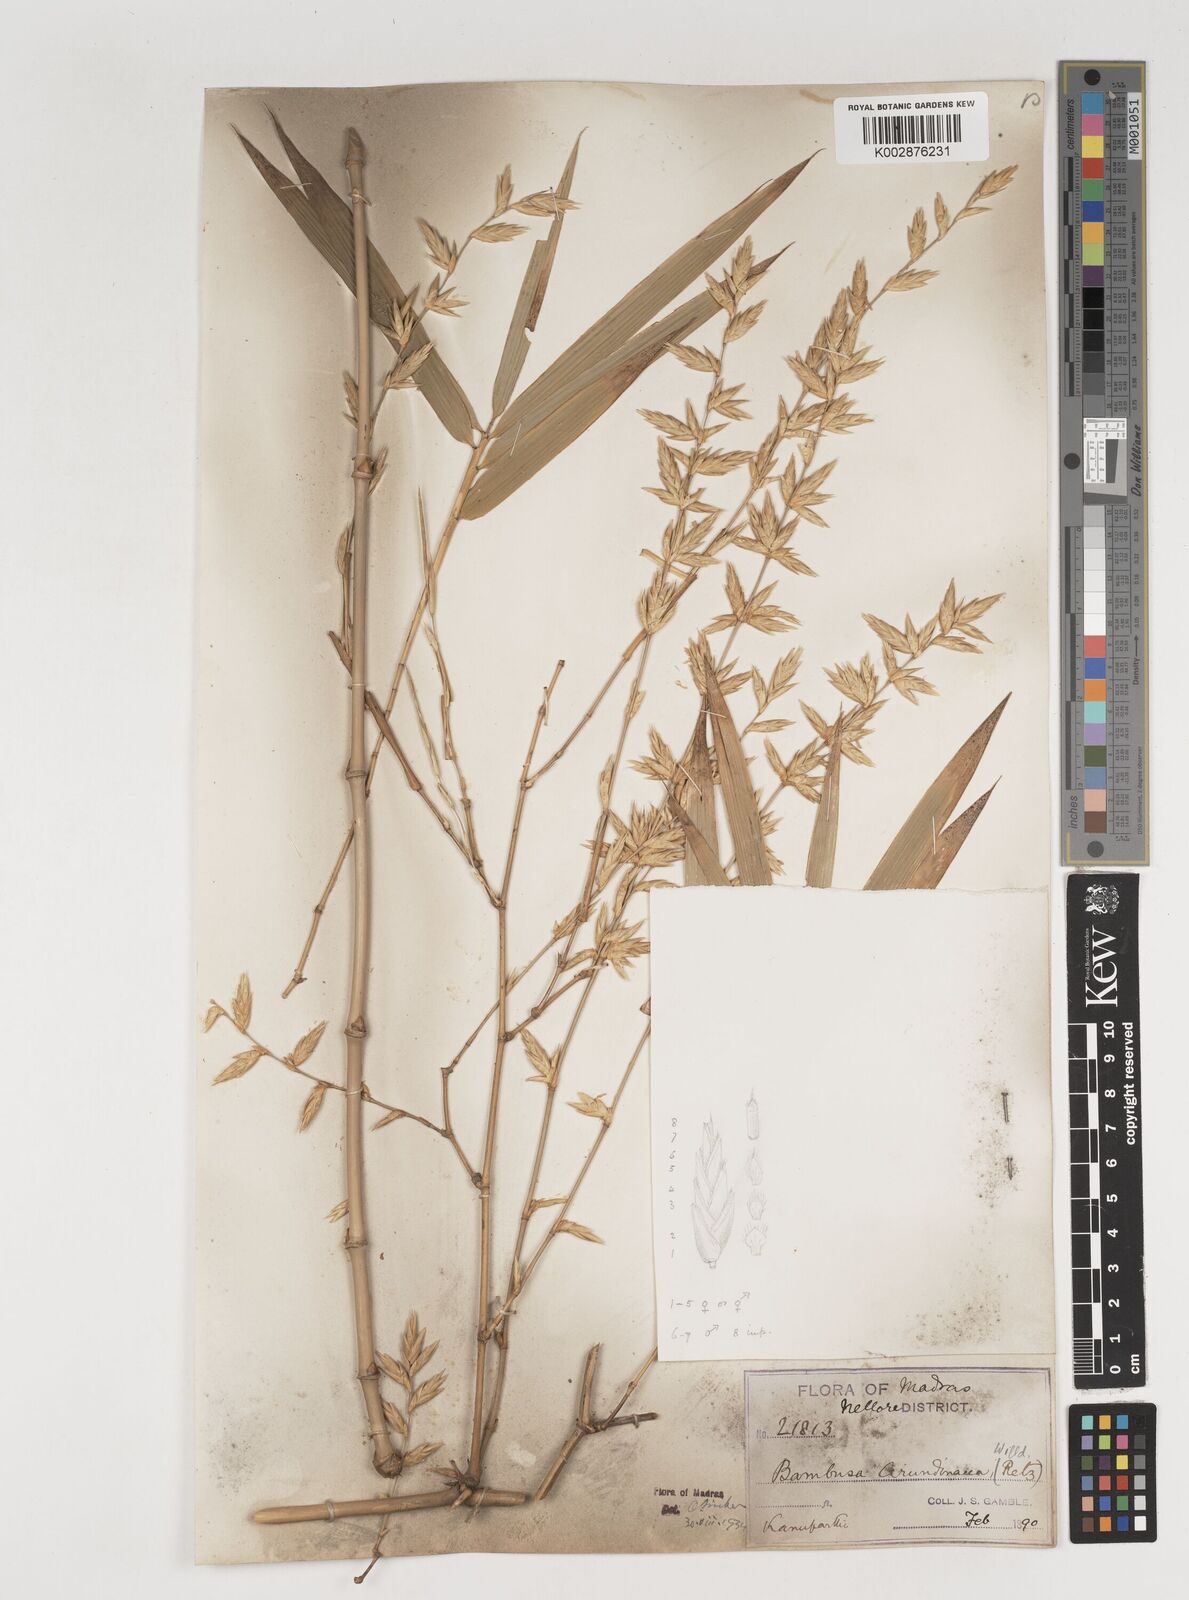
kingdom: Plantae
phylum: Tracheophyta
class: Liliopsida
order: Poales
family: Poaceae
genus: Bambusa
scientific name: Bambusa bambos
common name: Indian thorny bamboo
